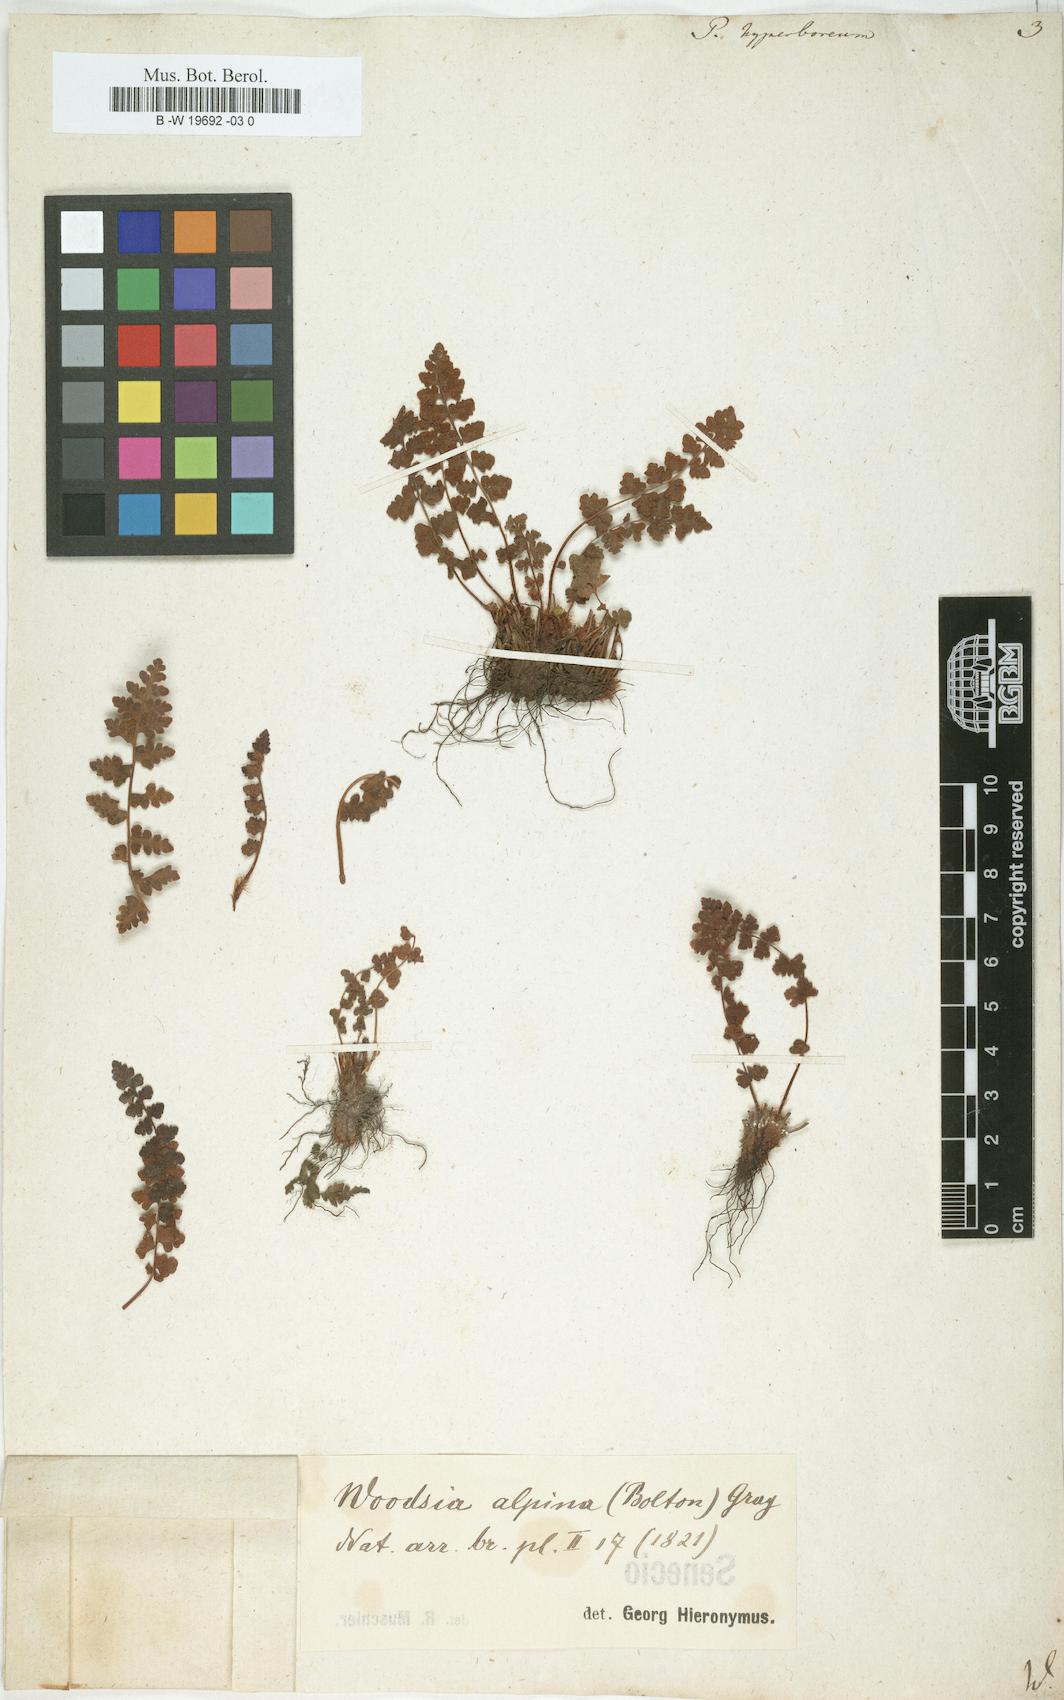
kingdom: Plantae
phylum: Tracheophyta
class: Polypodiopsida
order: Polypodiales
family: Woodsiaceae
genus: Woodsia
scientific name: Woodsia alpina
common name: Alpine woodsia
